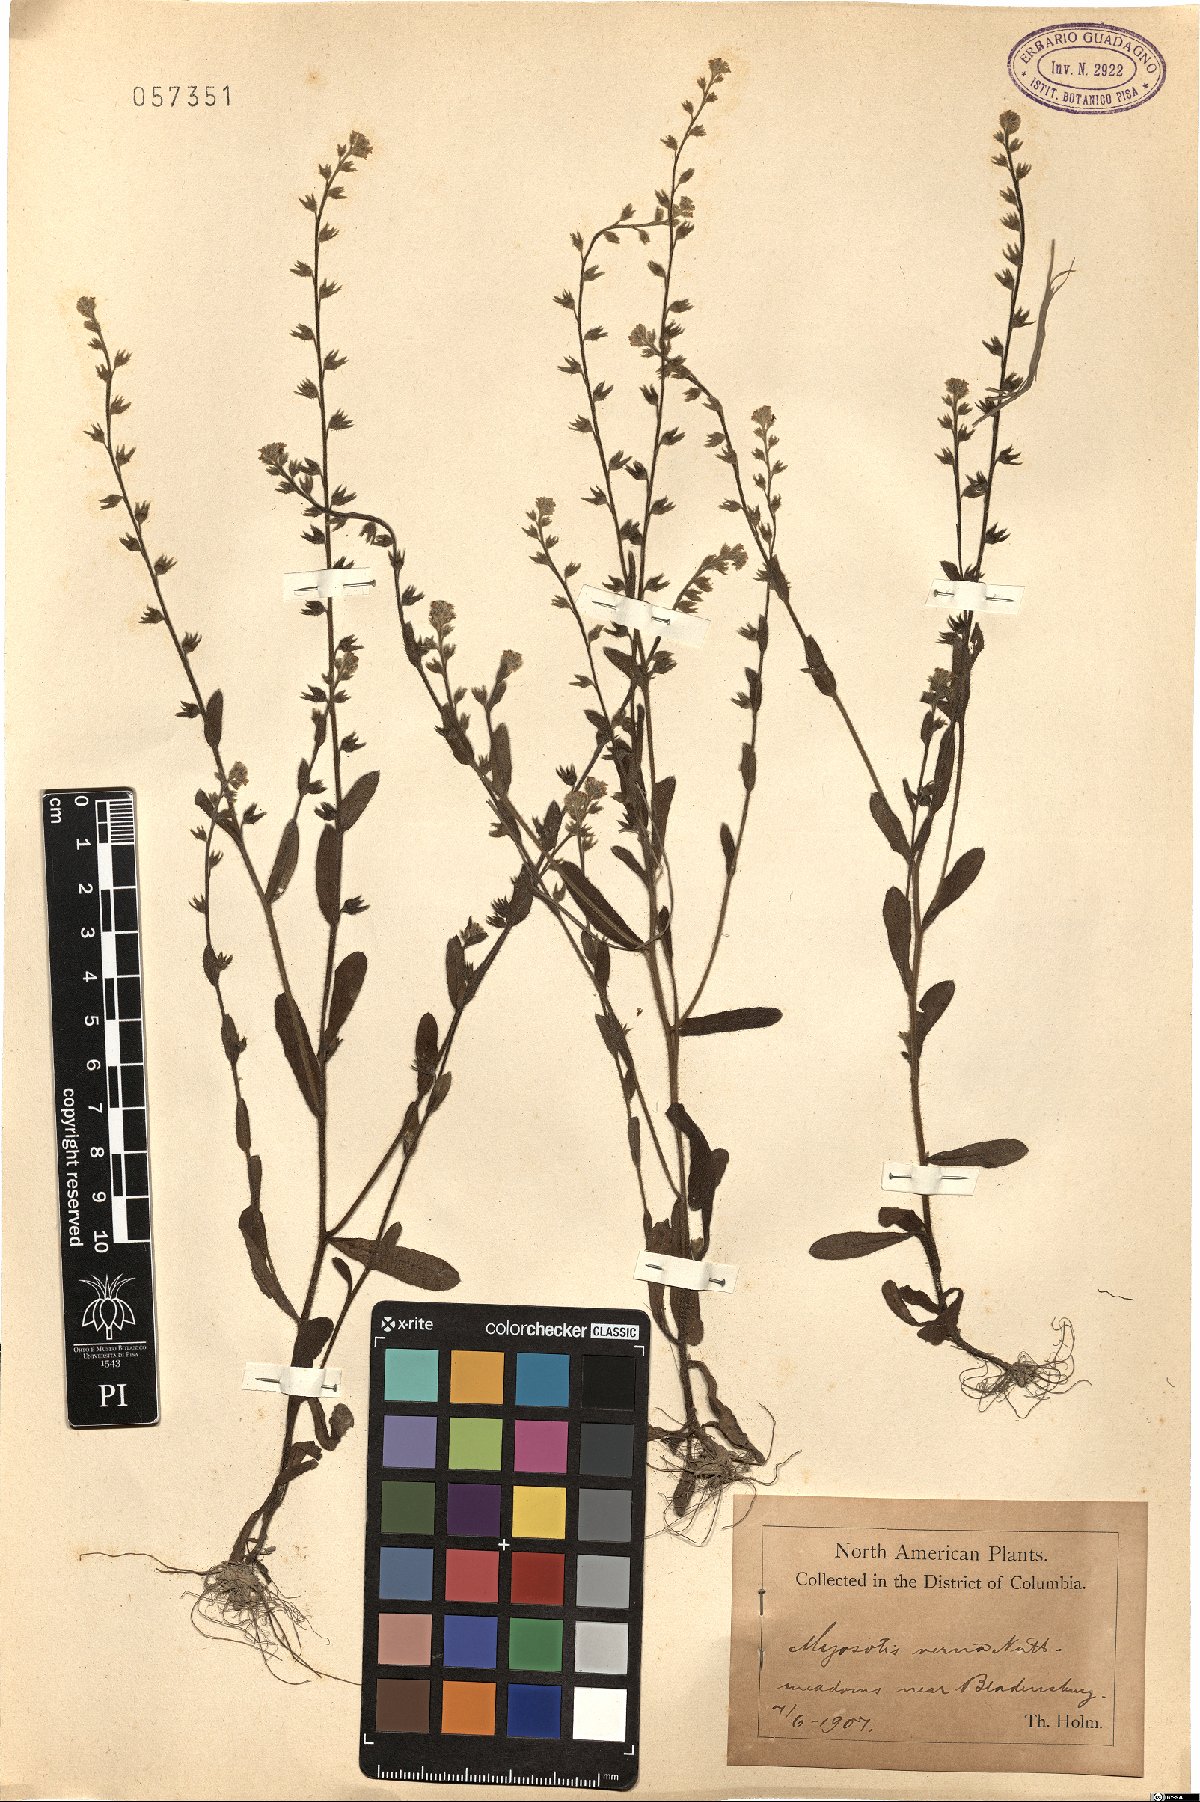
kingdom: Plantae
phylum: Tracheophyta
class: Magnoliopsida
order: Boraginales
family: Boraginaceae
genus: Myosotis
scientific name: Myosotis verna
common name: Early forget-me-not
